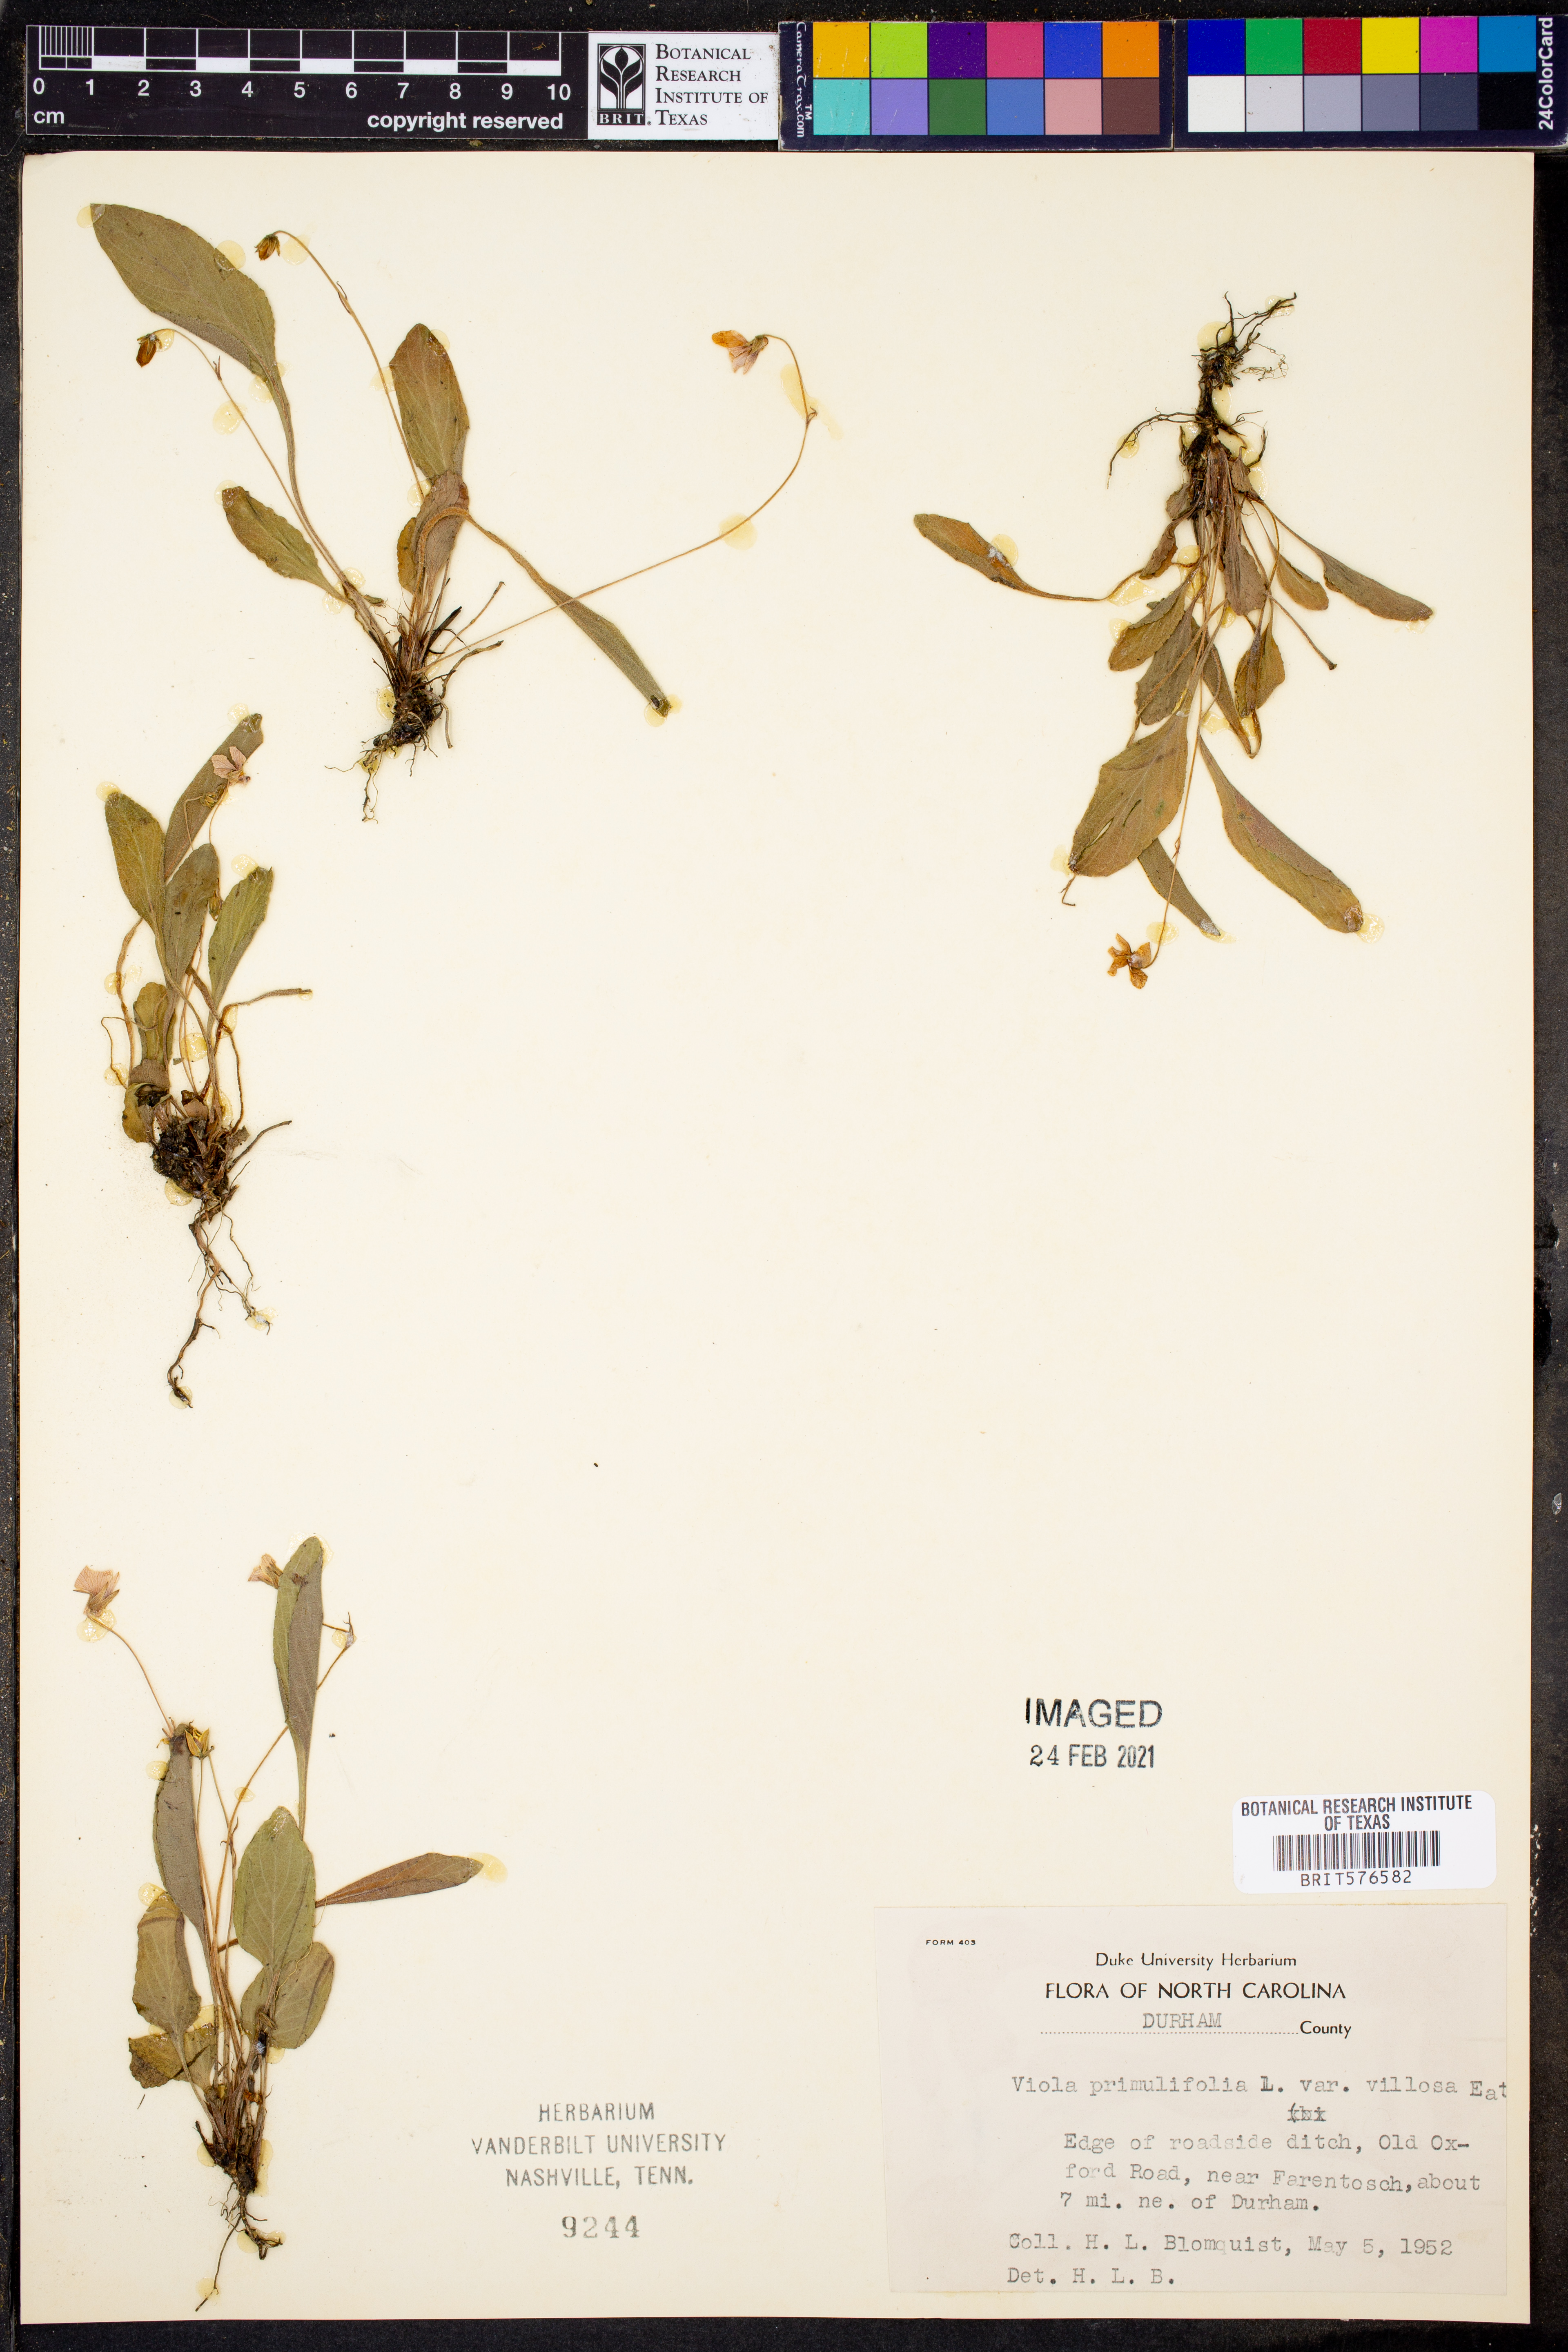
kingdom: Plantae
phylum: Tracheophyta
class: Magnoliopsida
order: Malpighiales
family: Violaceae
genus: Viola
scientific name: Viola primulifolia
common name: Primrose-leaf violet
